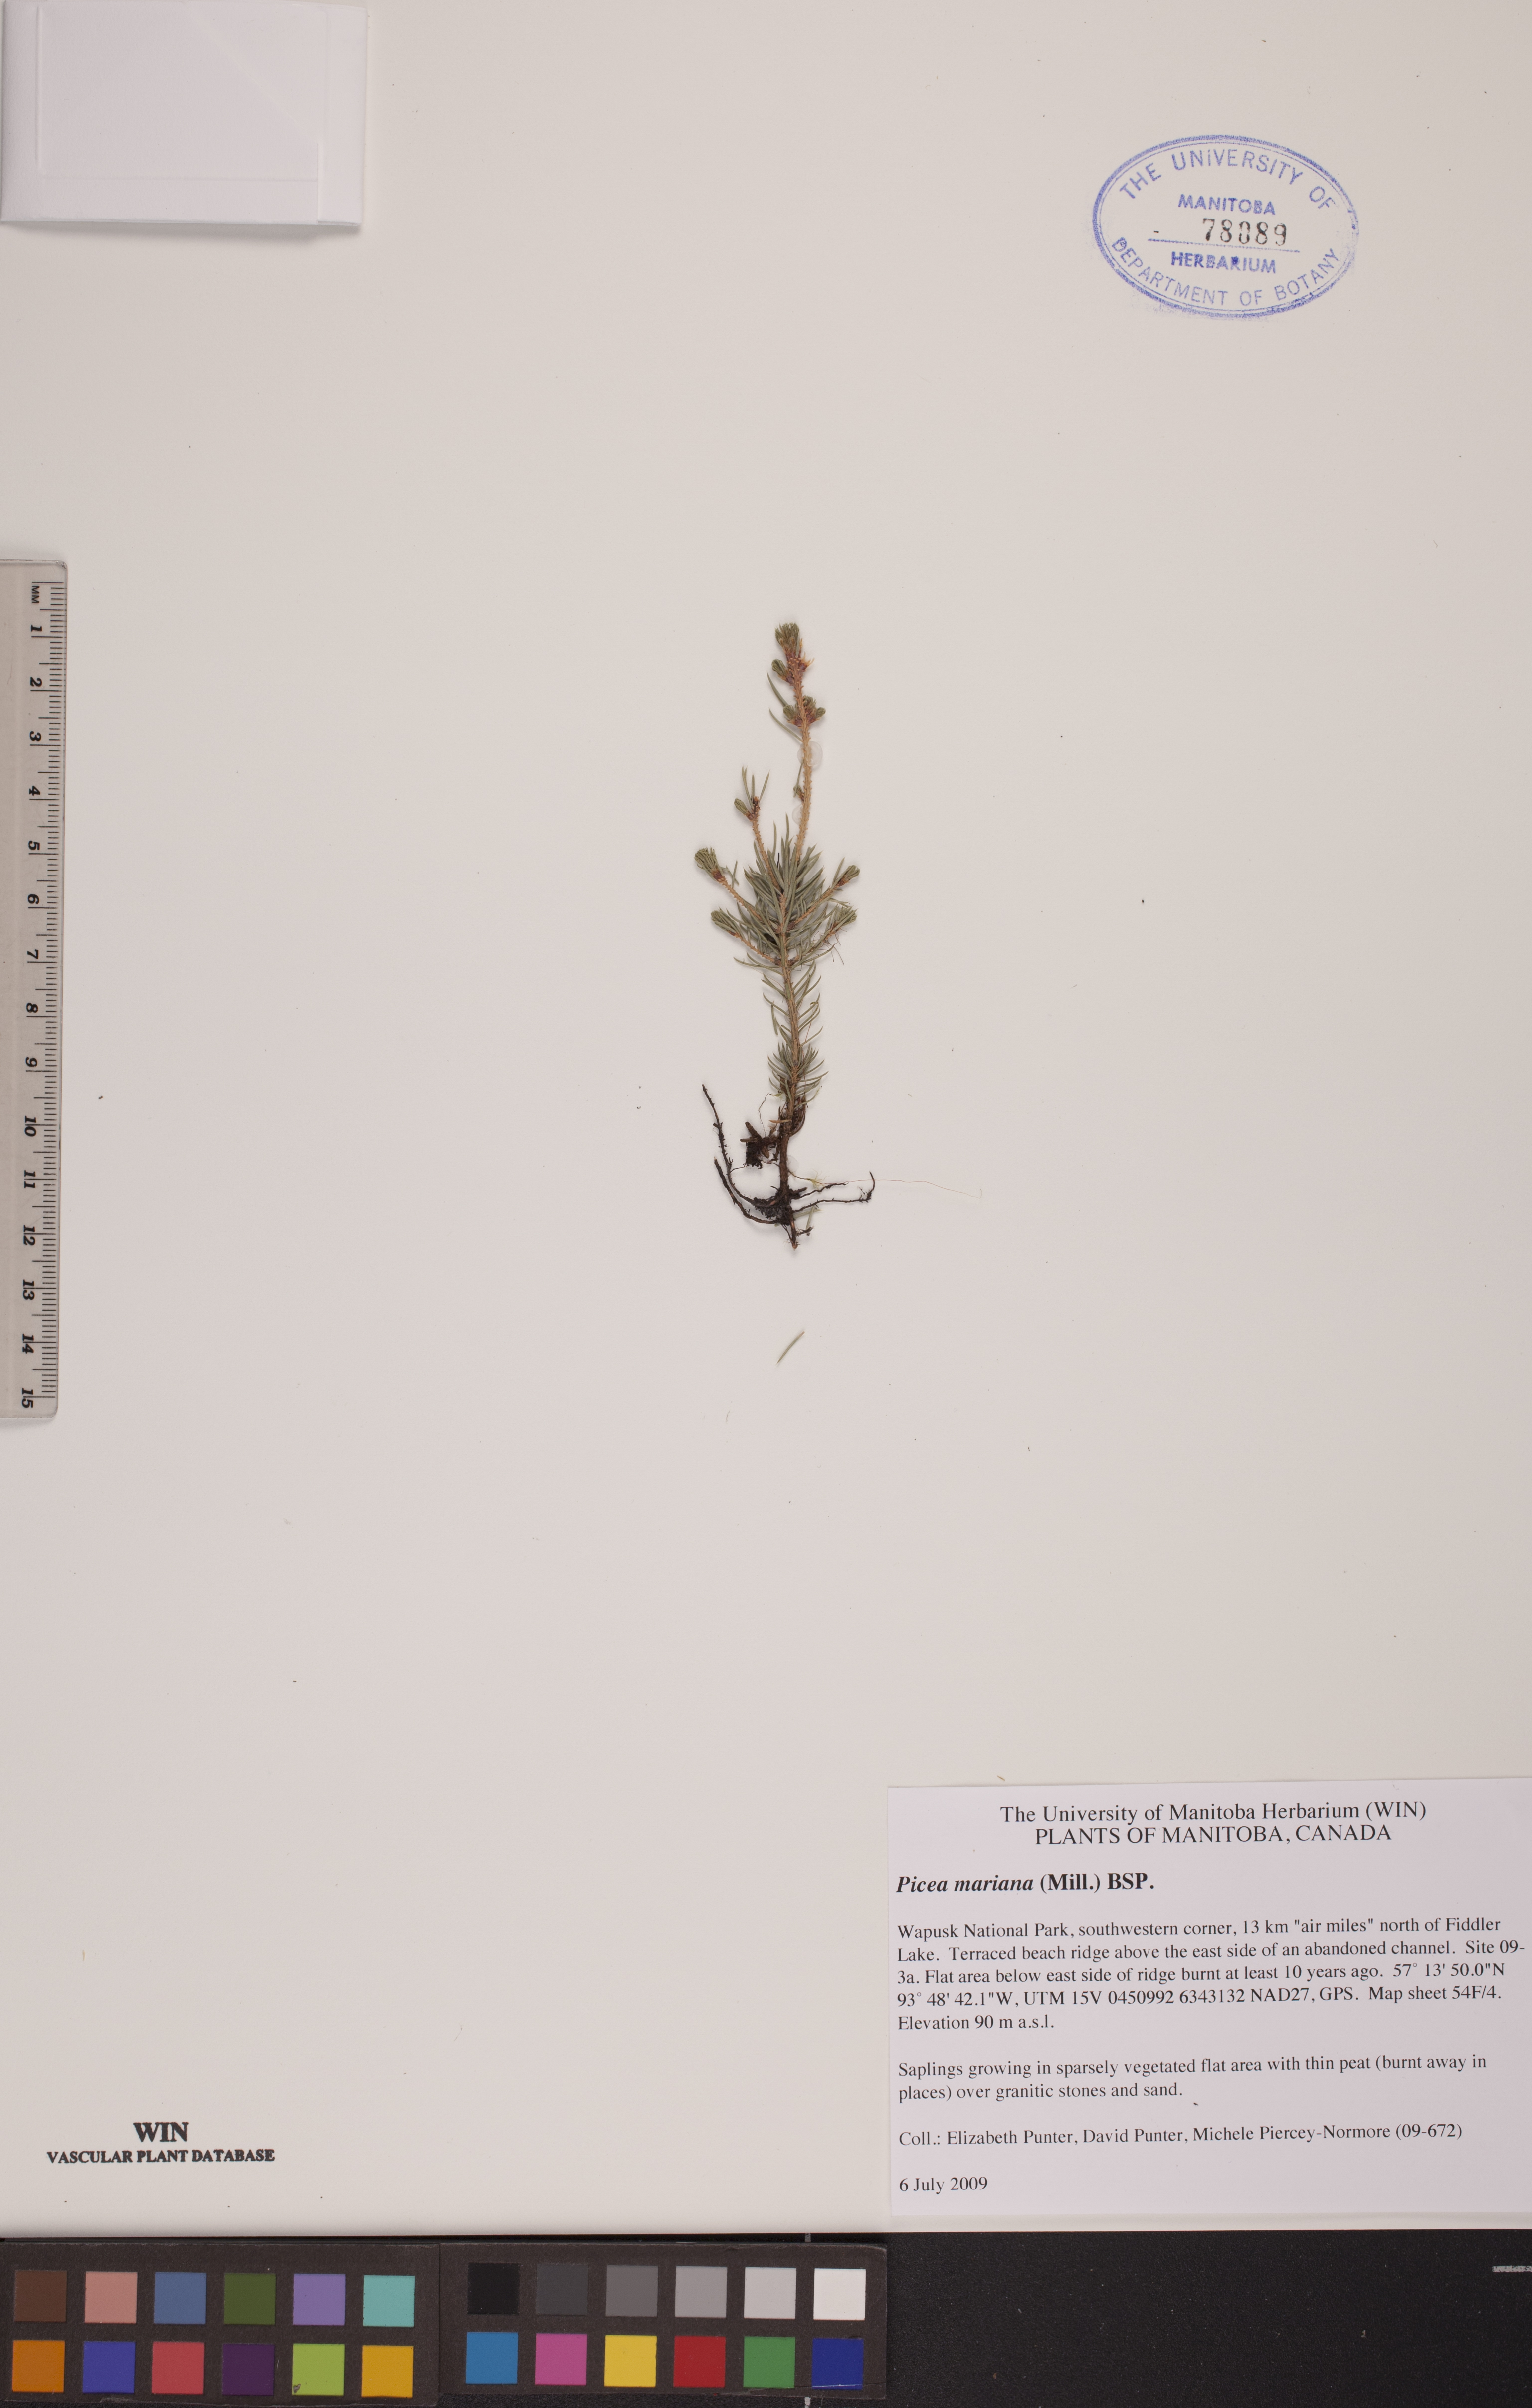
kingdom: Plantae
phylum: Tracheophyta
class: Pinopsida
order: Pinales
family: Pinaceae
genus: Picea
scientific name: Picea mariana
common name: Black spruce
